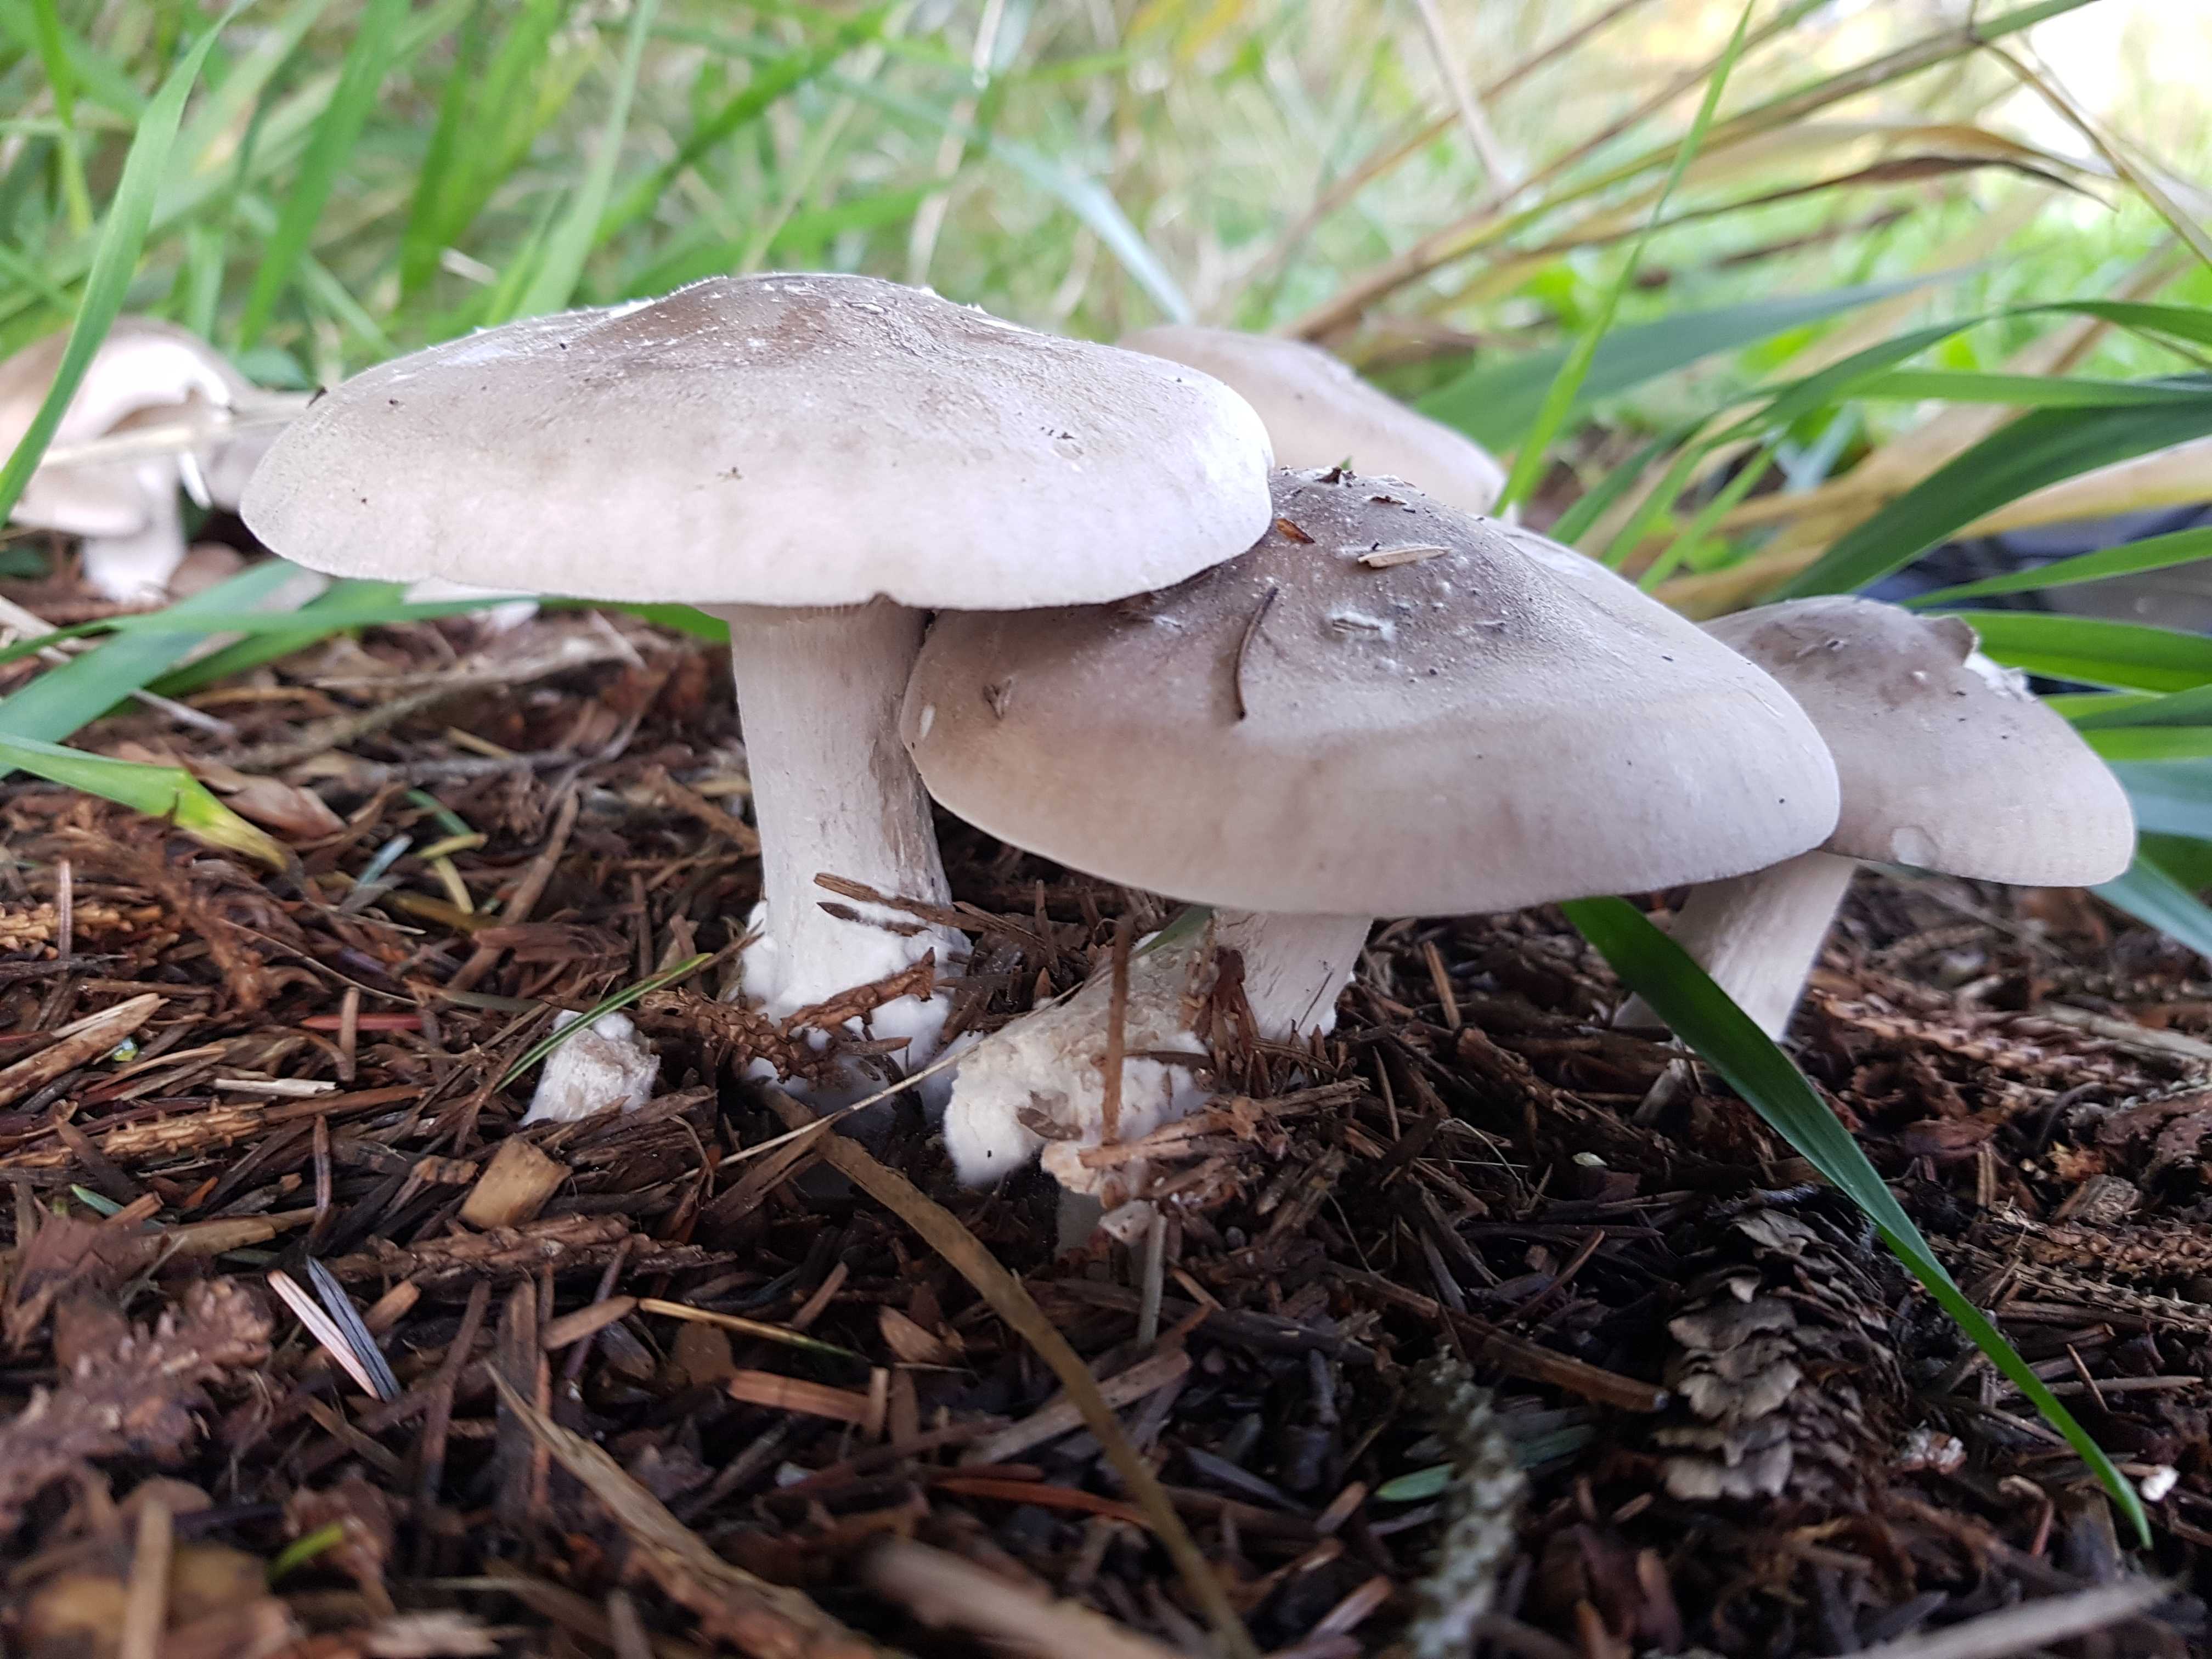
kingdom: Fungi
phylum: Basidiomycota
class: Agaricomycetes
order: Agaricales
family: Tricholomataceae
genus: Clitocybe
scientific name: Clitocybe nebularis
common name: tåge-tragthat
